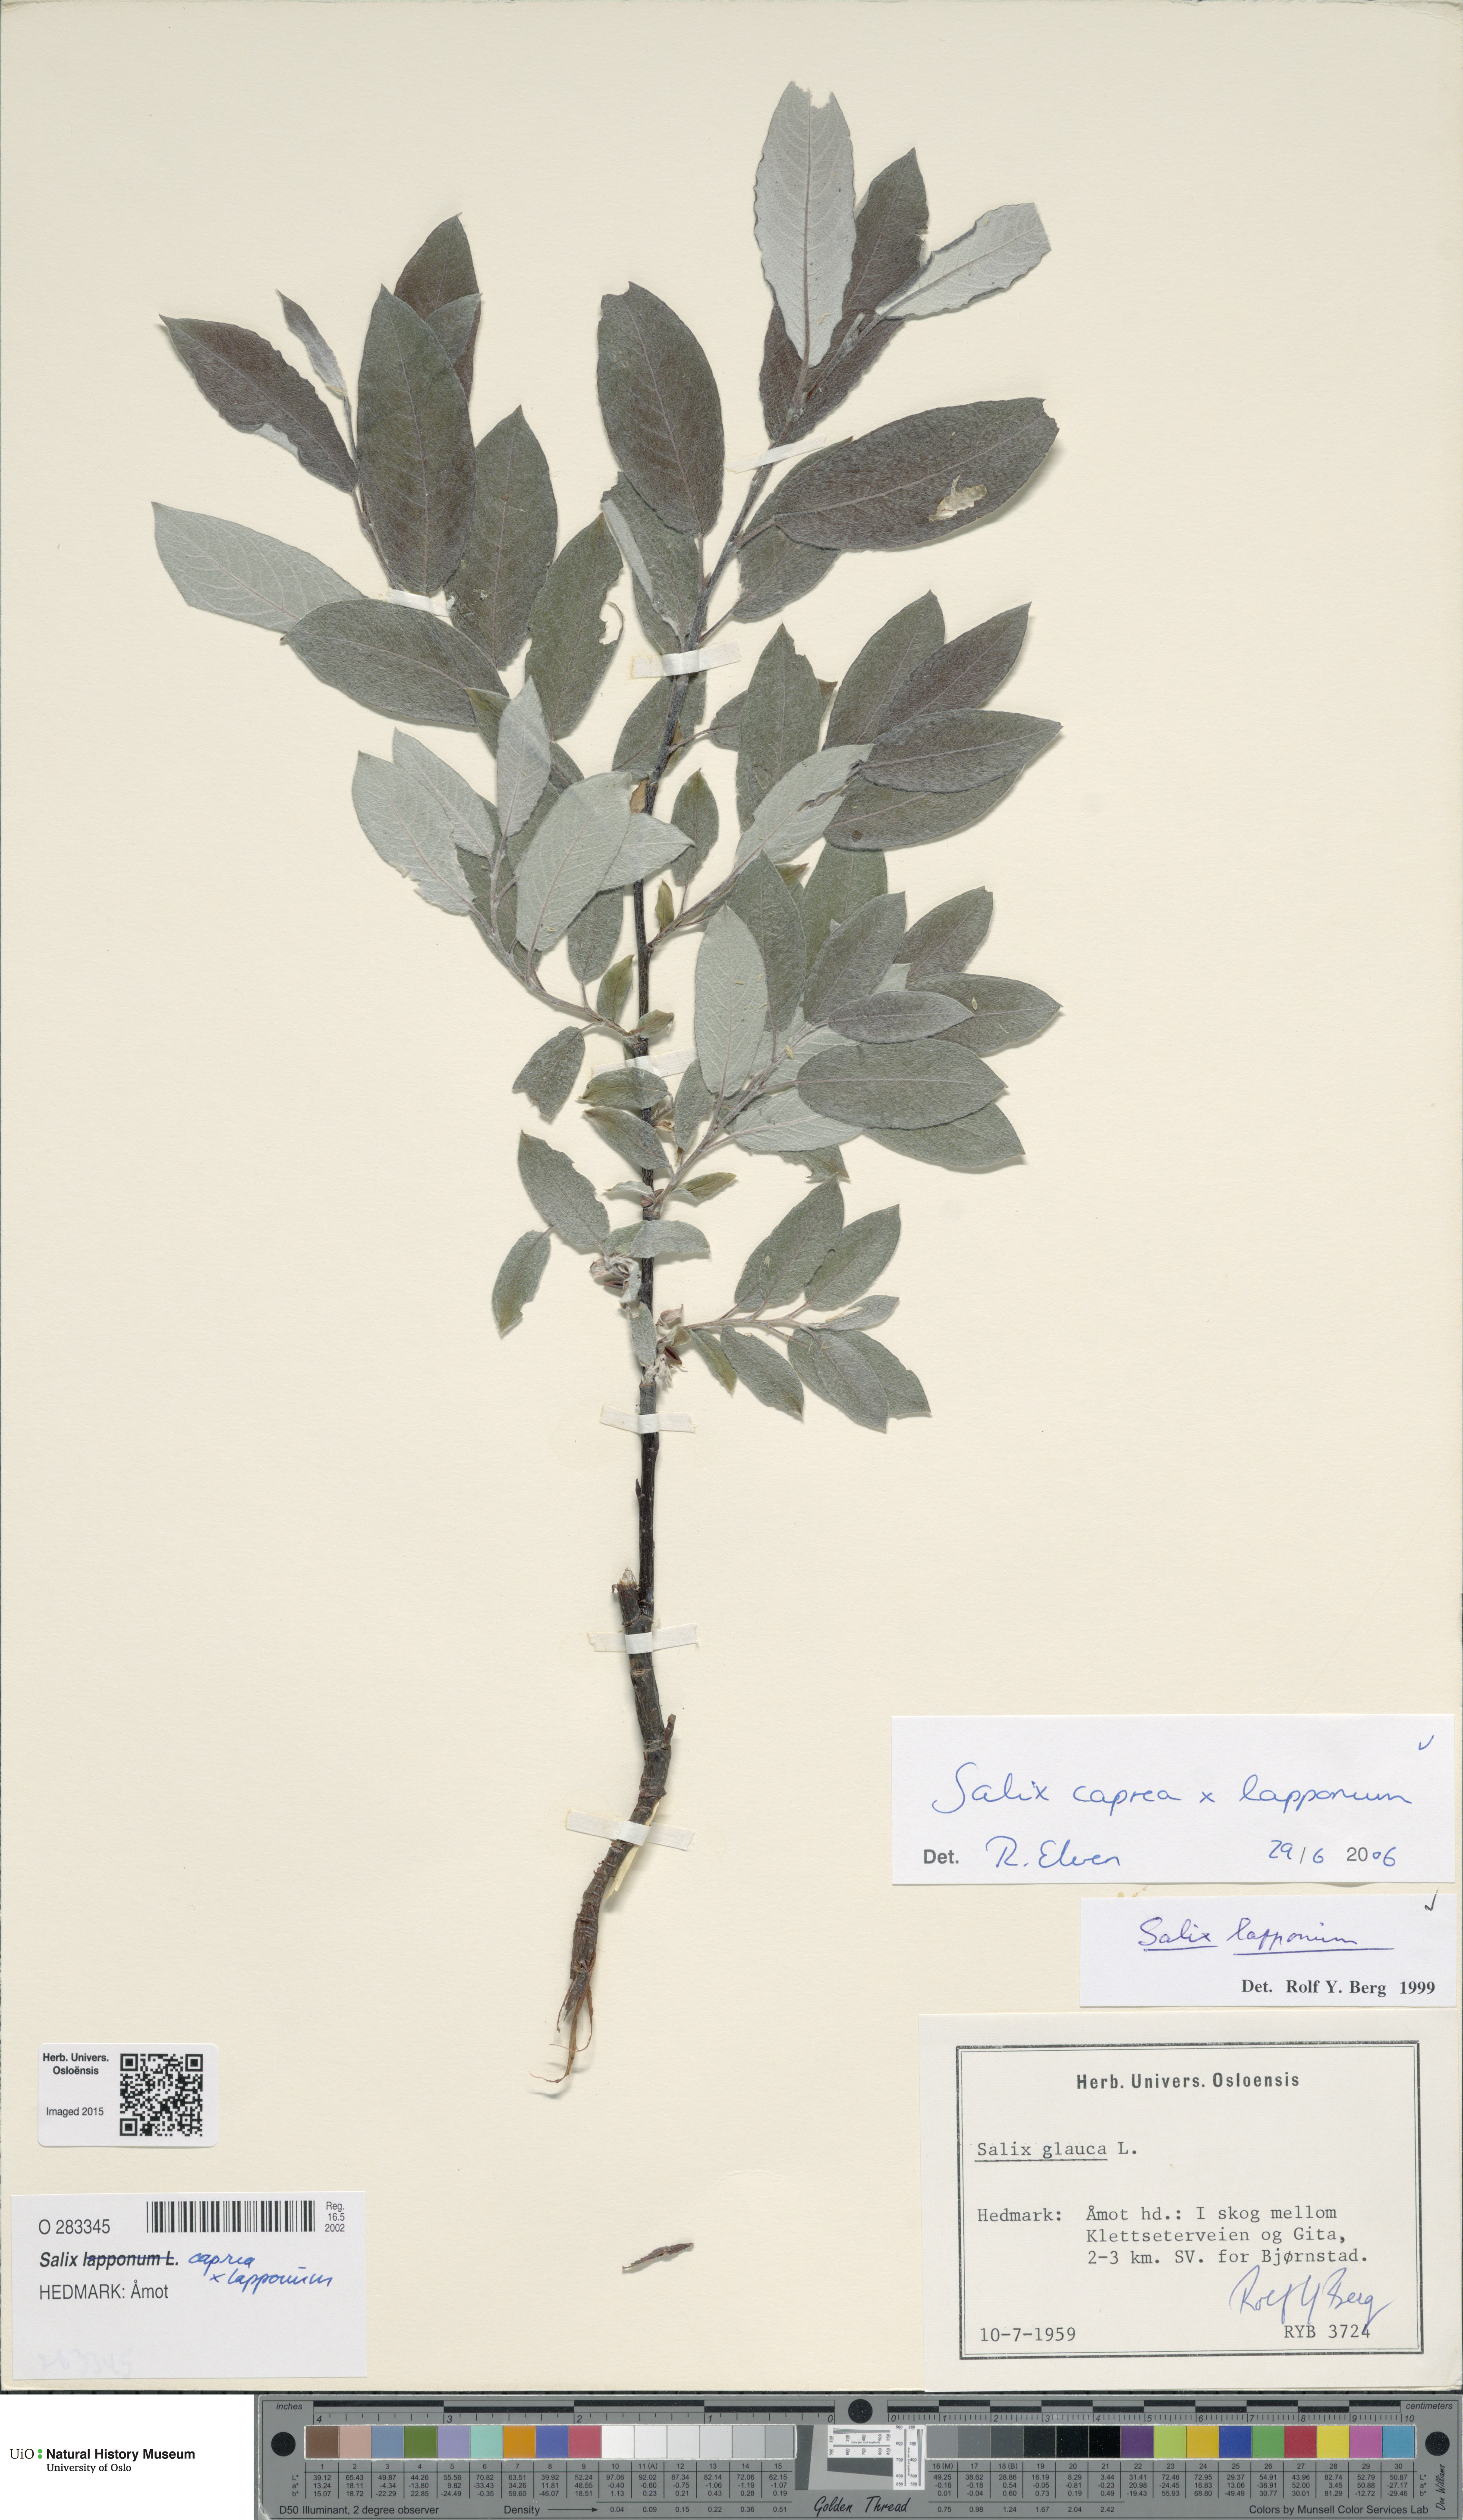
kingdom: Plantae
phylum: Tracheophyta
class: Magnoliopsida
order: Malpighiales
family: Salicaceae
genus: Salix
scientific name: Salix
